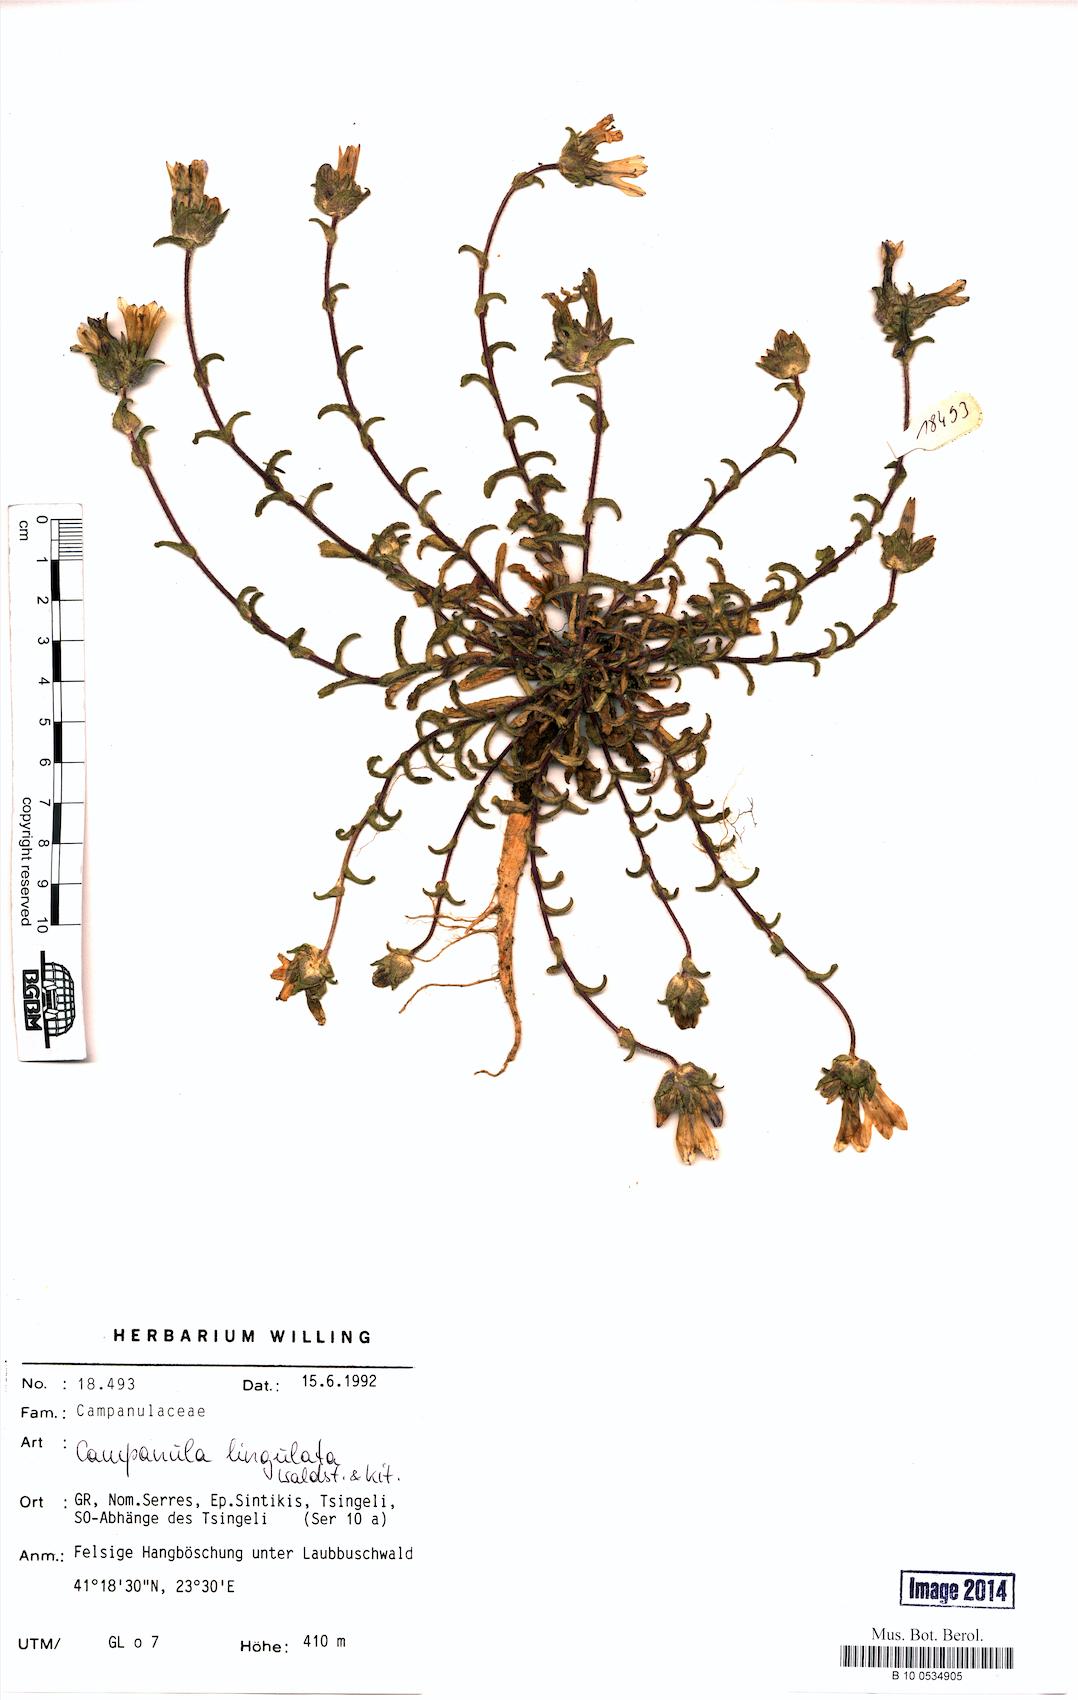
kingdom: Plantae
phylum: Tracheophyta
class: Magnoliopsida
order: Asterales
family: Campanulaceae
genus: Campanula
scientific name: Campanula lingulata
